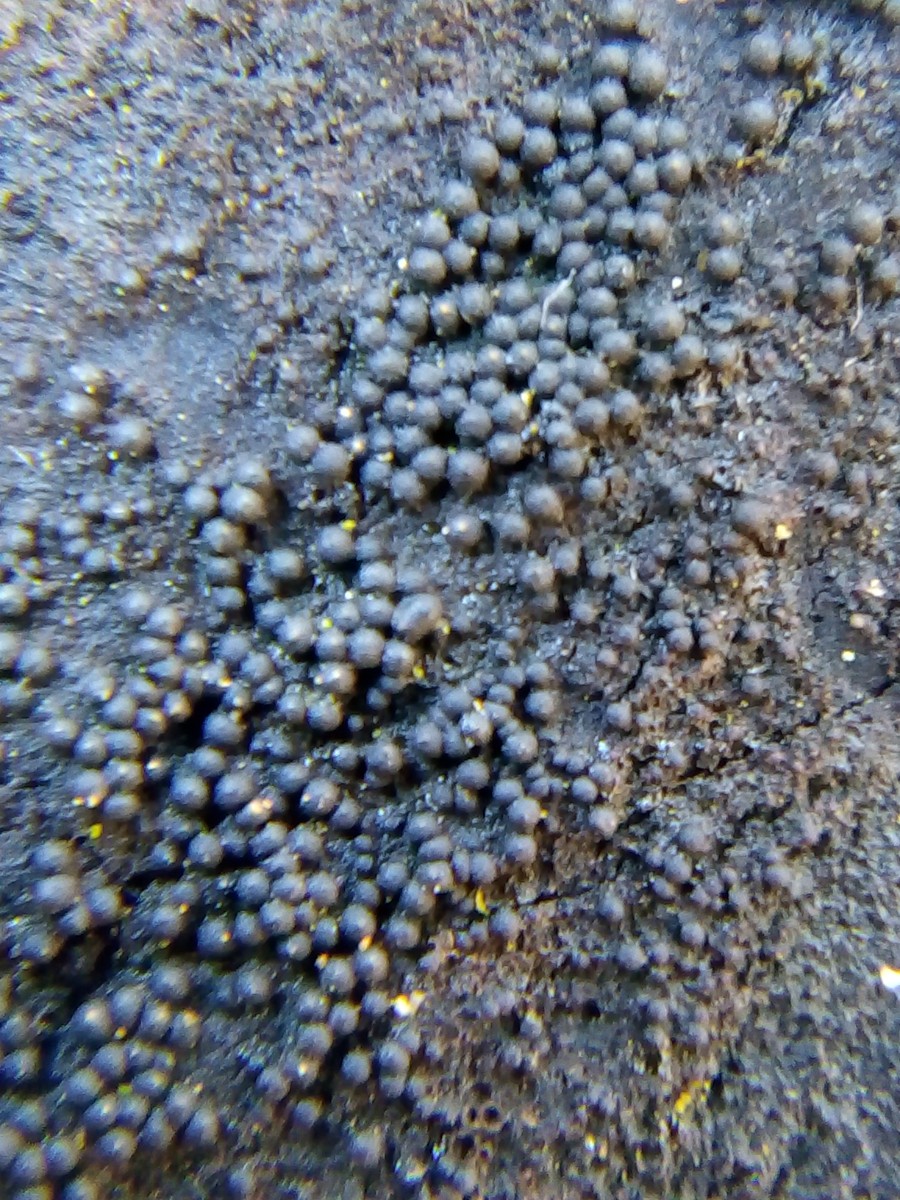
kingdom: Fungi
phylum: Ascomycota
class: Sordariomycetes
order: Sordariales
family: Helminthosphaeriaceae
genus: Ruzenia
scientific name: Ruzenia spermoides
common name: glat børstekerne
